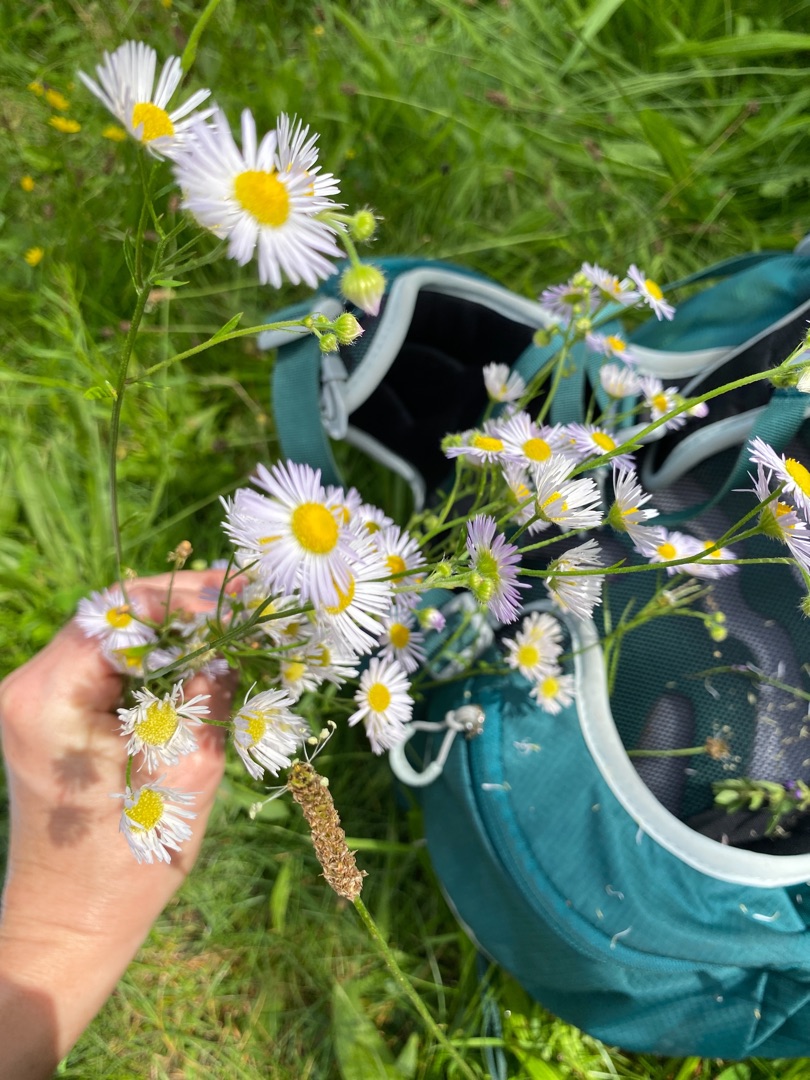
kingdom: Plantae
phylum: Tracheophyta
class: Magnoliopsida
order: Asterales
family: Asteraceae
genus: Erigeron
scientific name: Erigeron annuus
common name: Smalstråle
